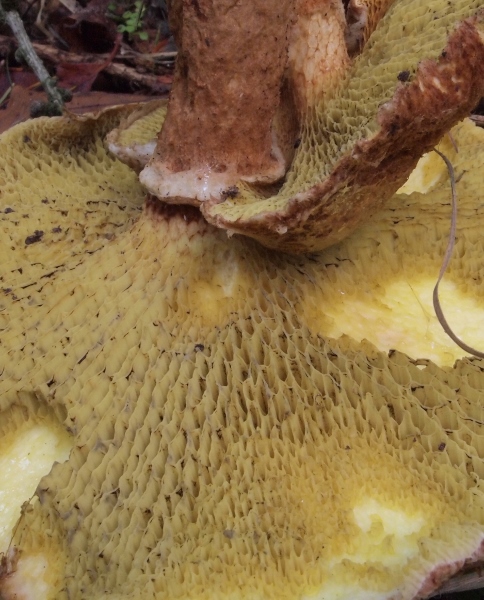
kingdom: Fungi
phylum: Basidiomycota
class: Agaricomycetes
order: Boletales
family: Suillaceae
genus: Suillus
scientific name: Suillus cavipes
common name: hulstokket slimrørhat
